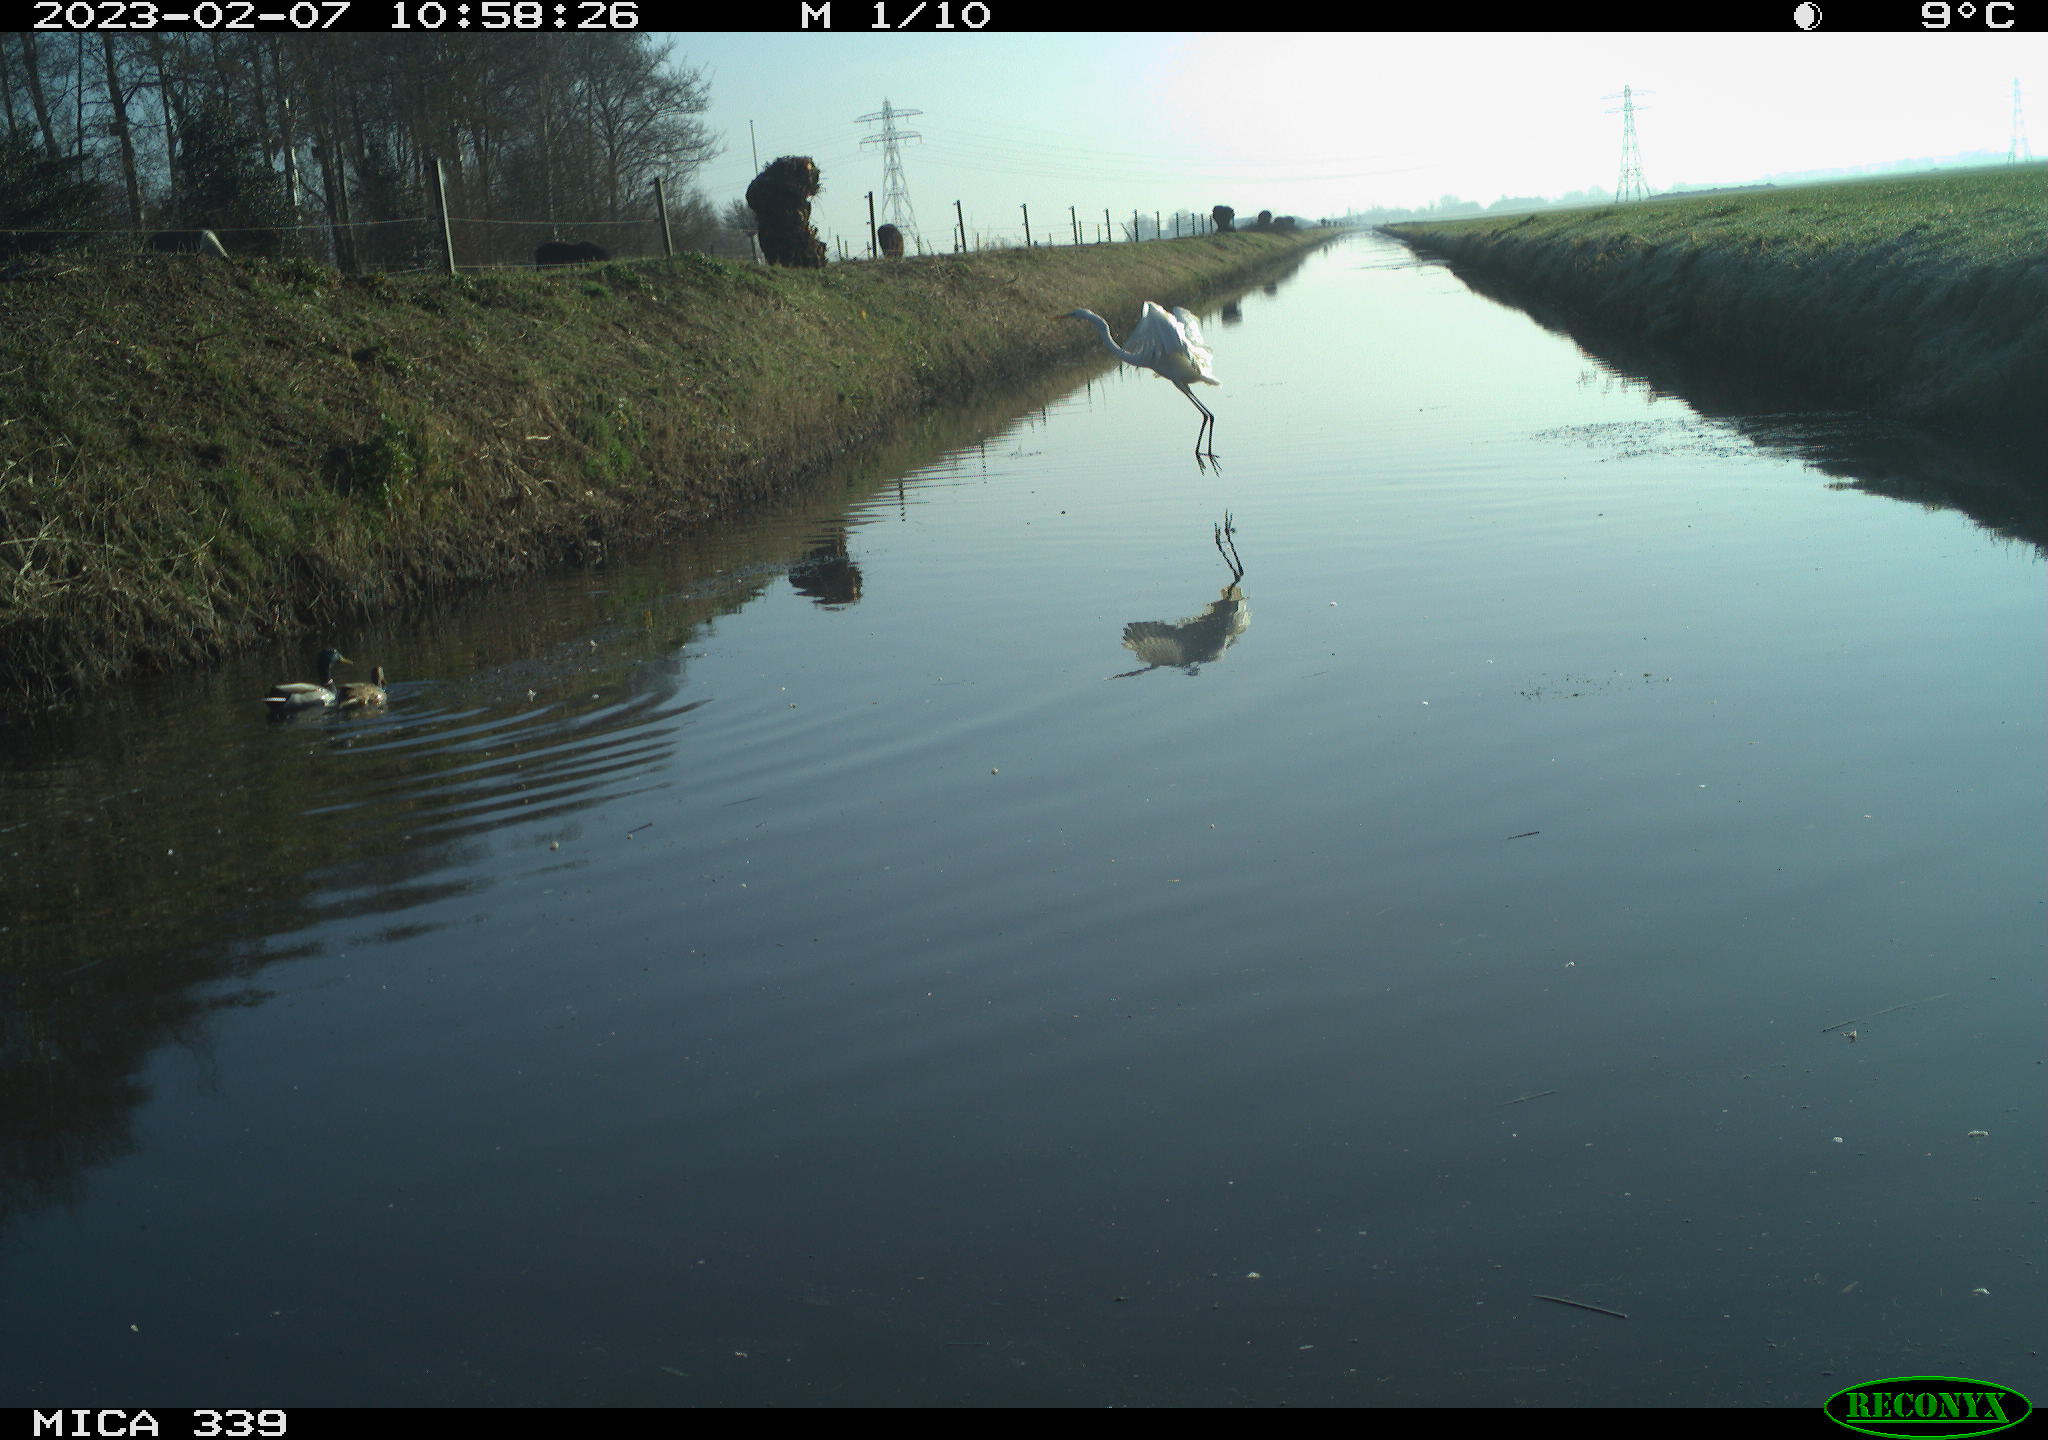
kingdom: Animalia
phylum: Chordata
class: Aves
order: Anseriformes
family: Anatidae
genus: Anas
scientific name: Anas
